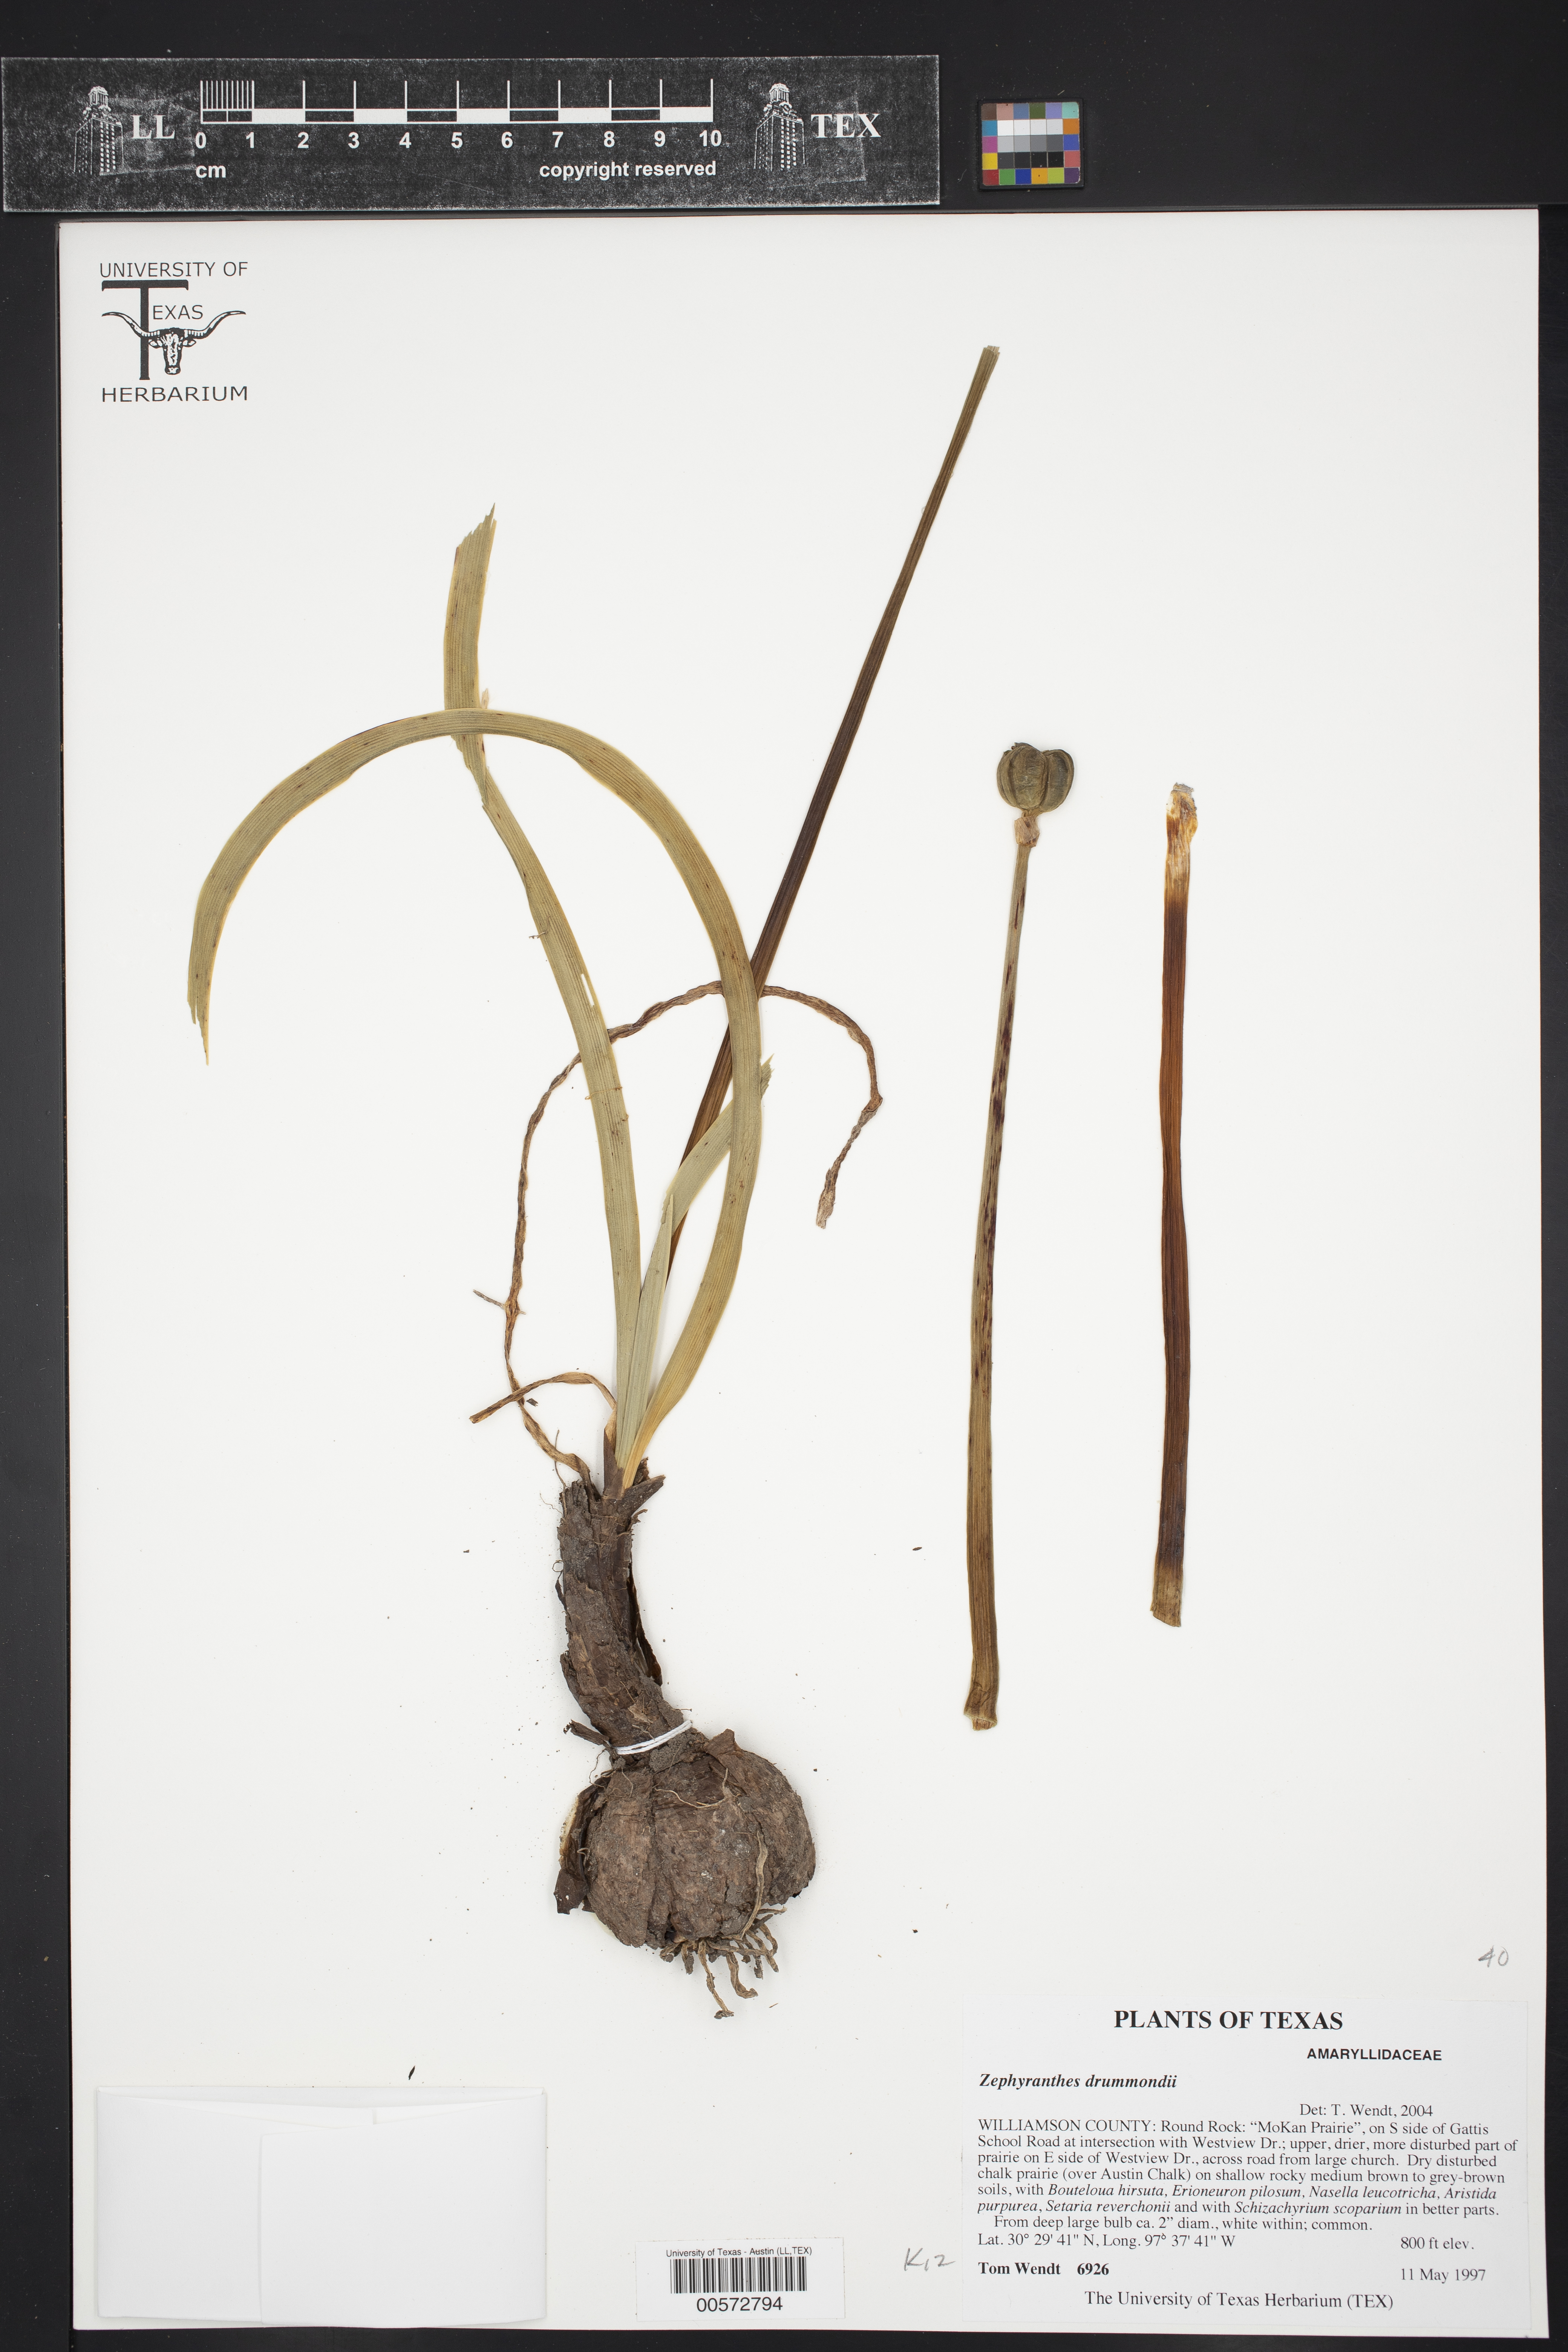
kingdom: Plantae
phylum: Tracheophyta
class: Liliopsida
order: Asparagales
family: Amaryllidaceae
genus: Zephyranthes
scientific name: Zephyranthes drummondii
